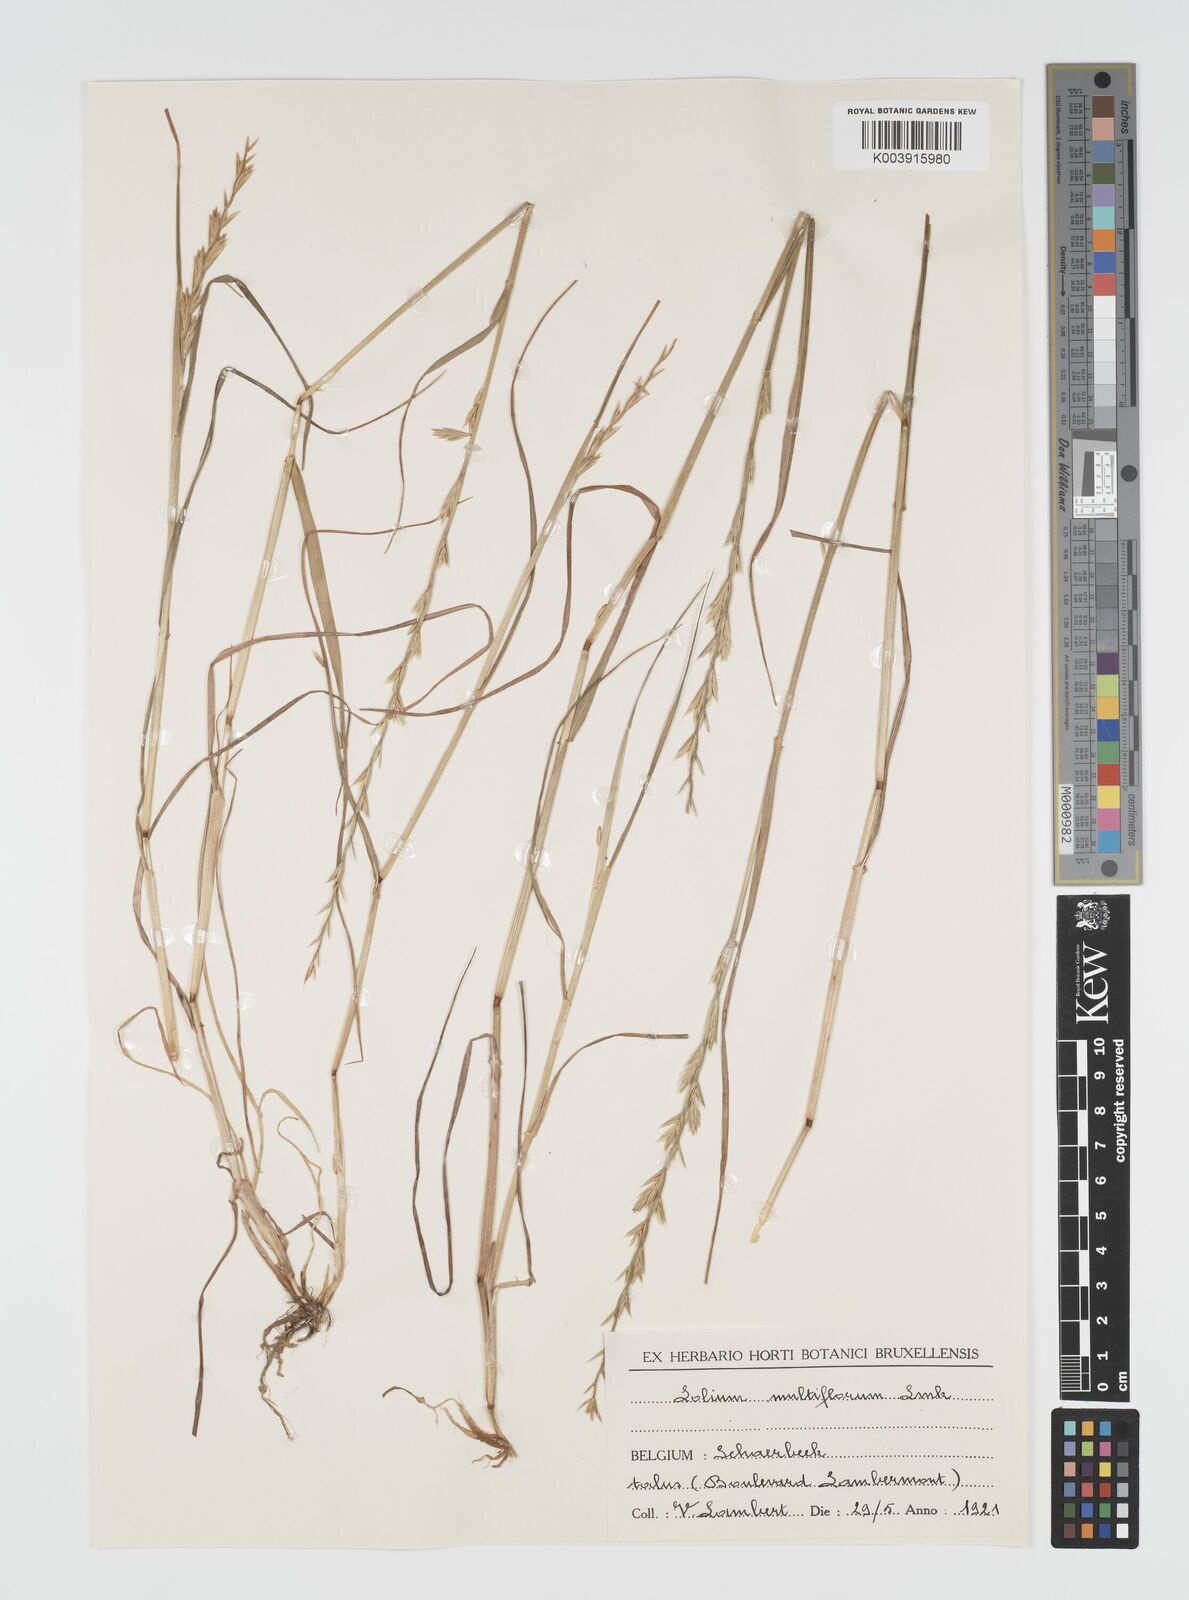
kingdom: Plantae
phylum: Tracheophyta
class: Liliopsida
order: Poales
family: Poaceae
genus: Lolium
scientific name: Lolium multiflorum
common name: Annual ryegrass
